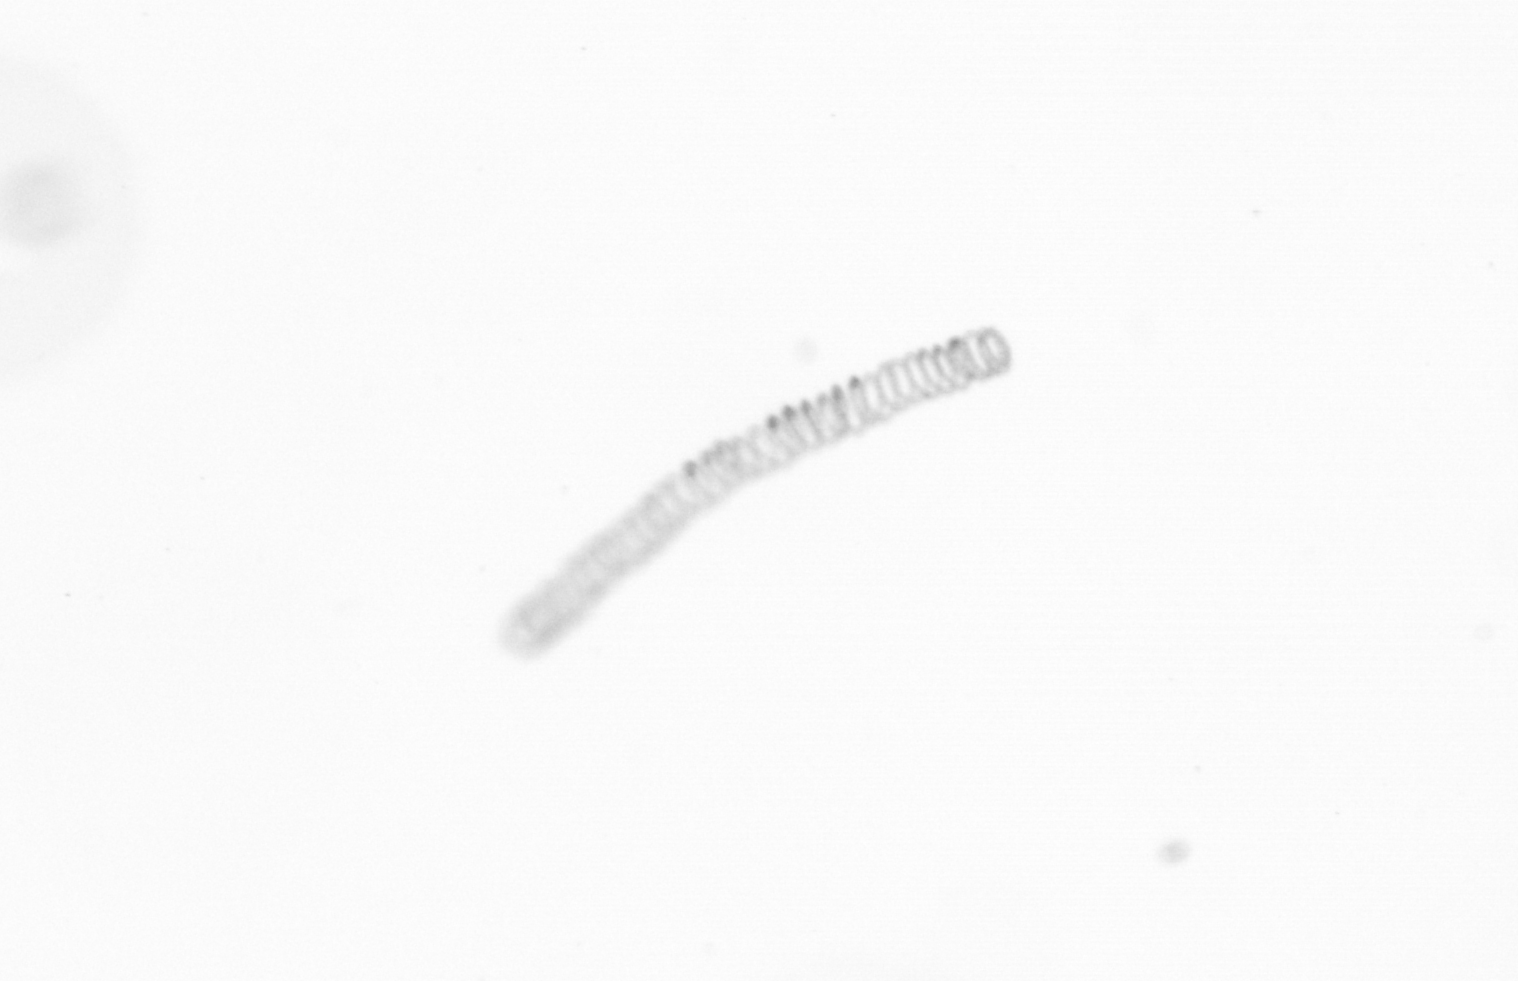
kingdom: Chromista
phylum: Ochrophyta
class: Bacillariophyceae
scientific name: Bacillariophyceae
